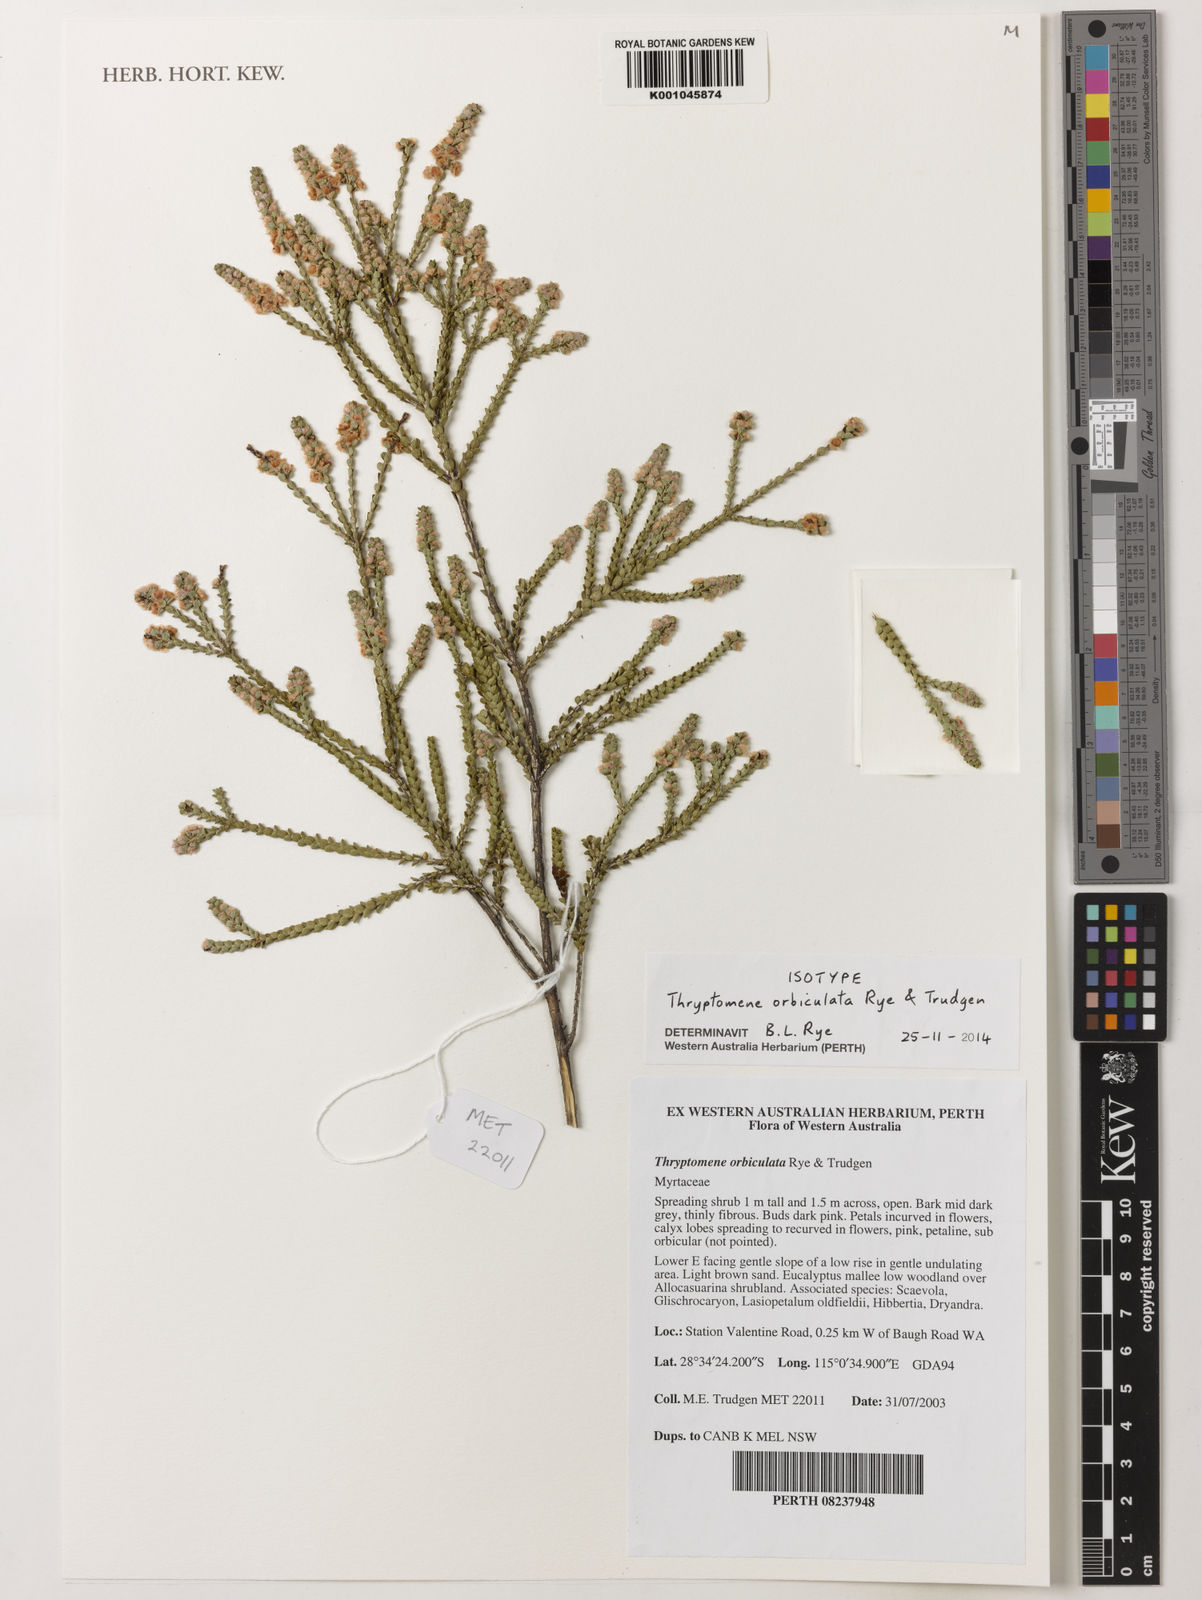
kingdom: Plantae
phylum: Tracheophyta
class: Magnoliopsida
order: Myrtales
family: Myrtaceae
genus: Thryptomene
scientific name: Thryptomene orbiculata
